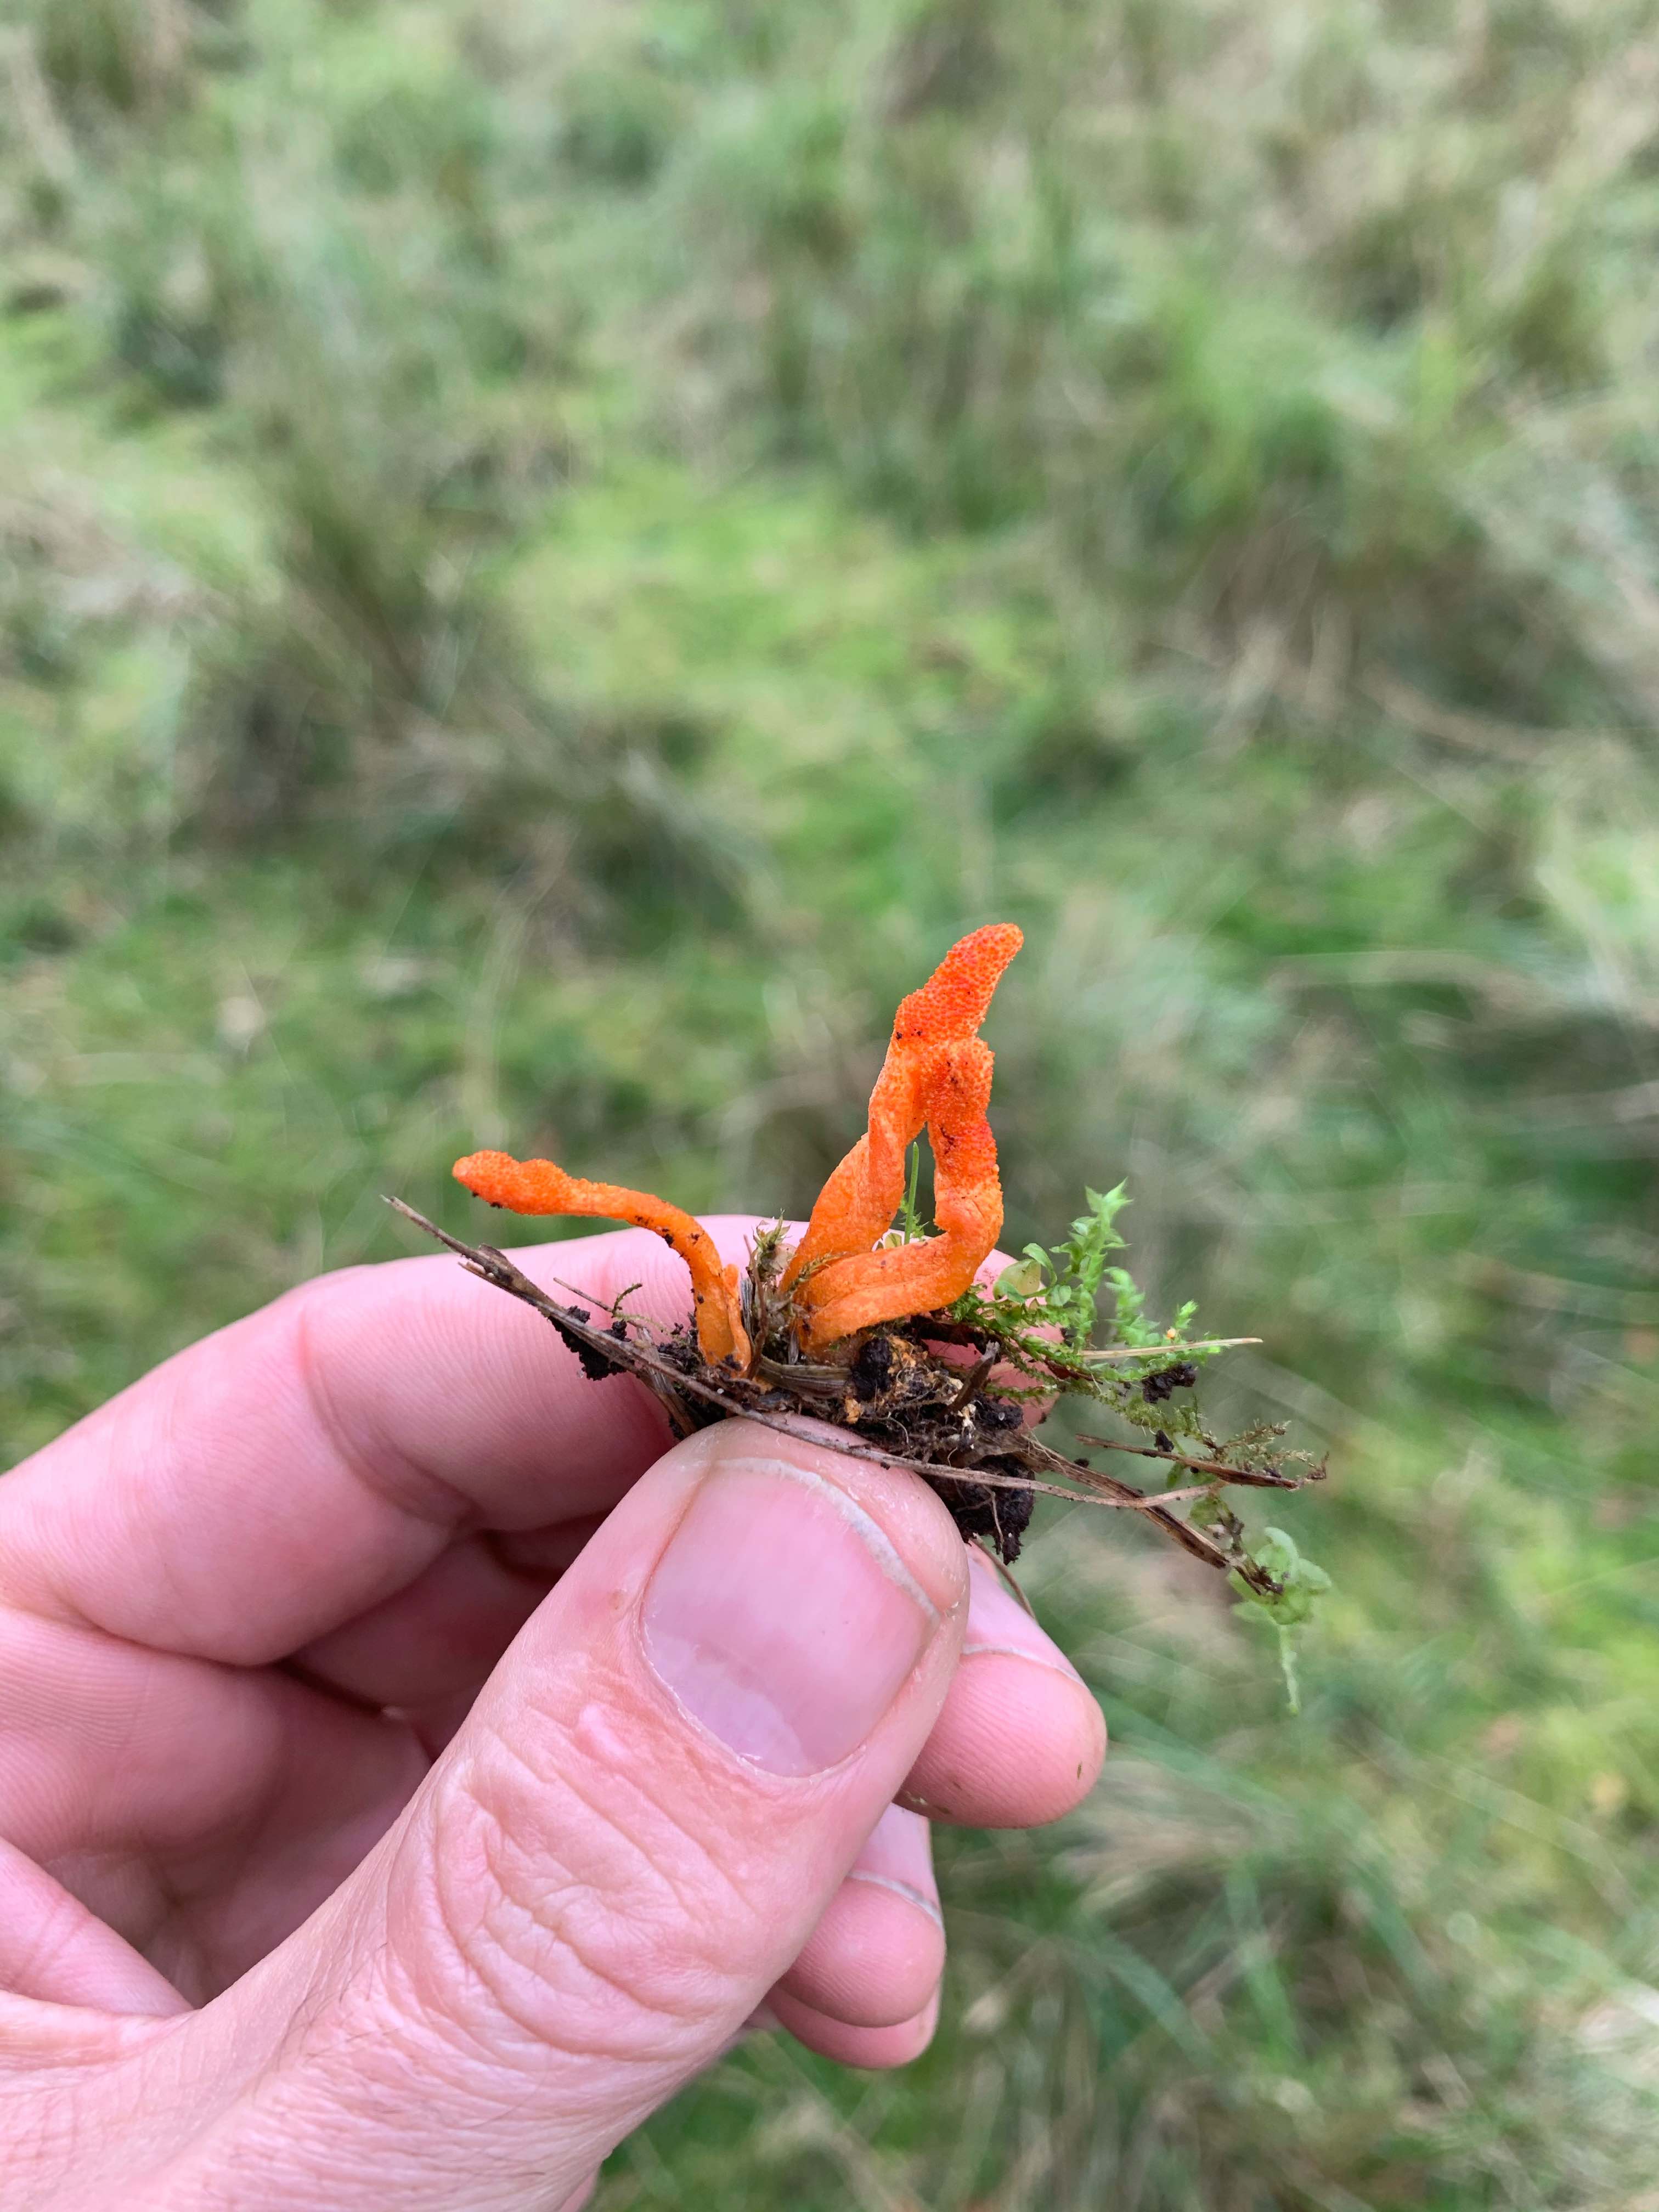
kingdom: Fungi
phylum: Basidiomycota
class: Dacrymycetes
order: Dacrymycetales
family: Dacrymycetaceae
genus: Calocera
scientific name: Calocera viscosa
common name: almindelig guldgaffel
